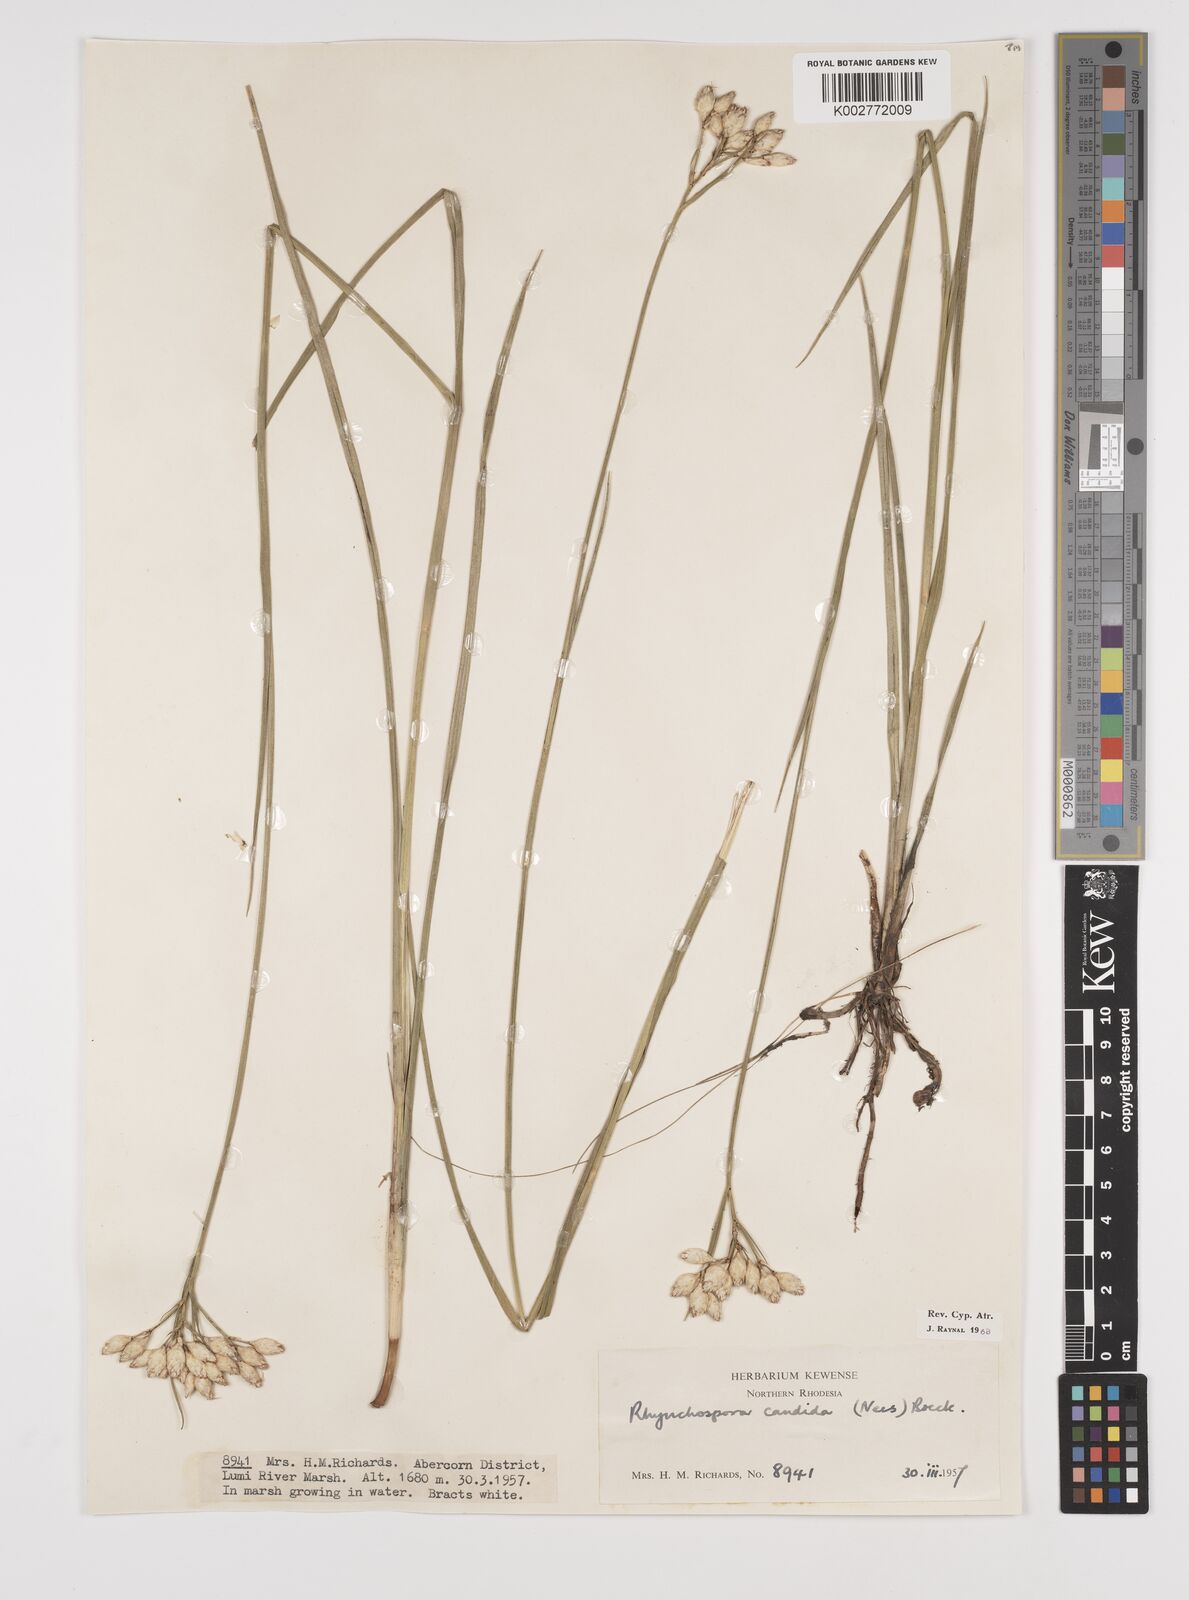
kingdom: Plantae
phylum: Tracheophyta
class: Liliopsida
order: Poales
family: Cyperaceae
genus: Rhynchospora
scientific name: Rhynchospora candida
